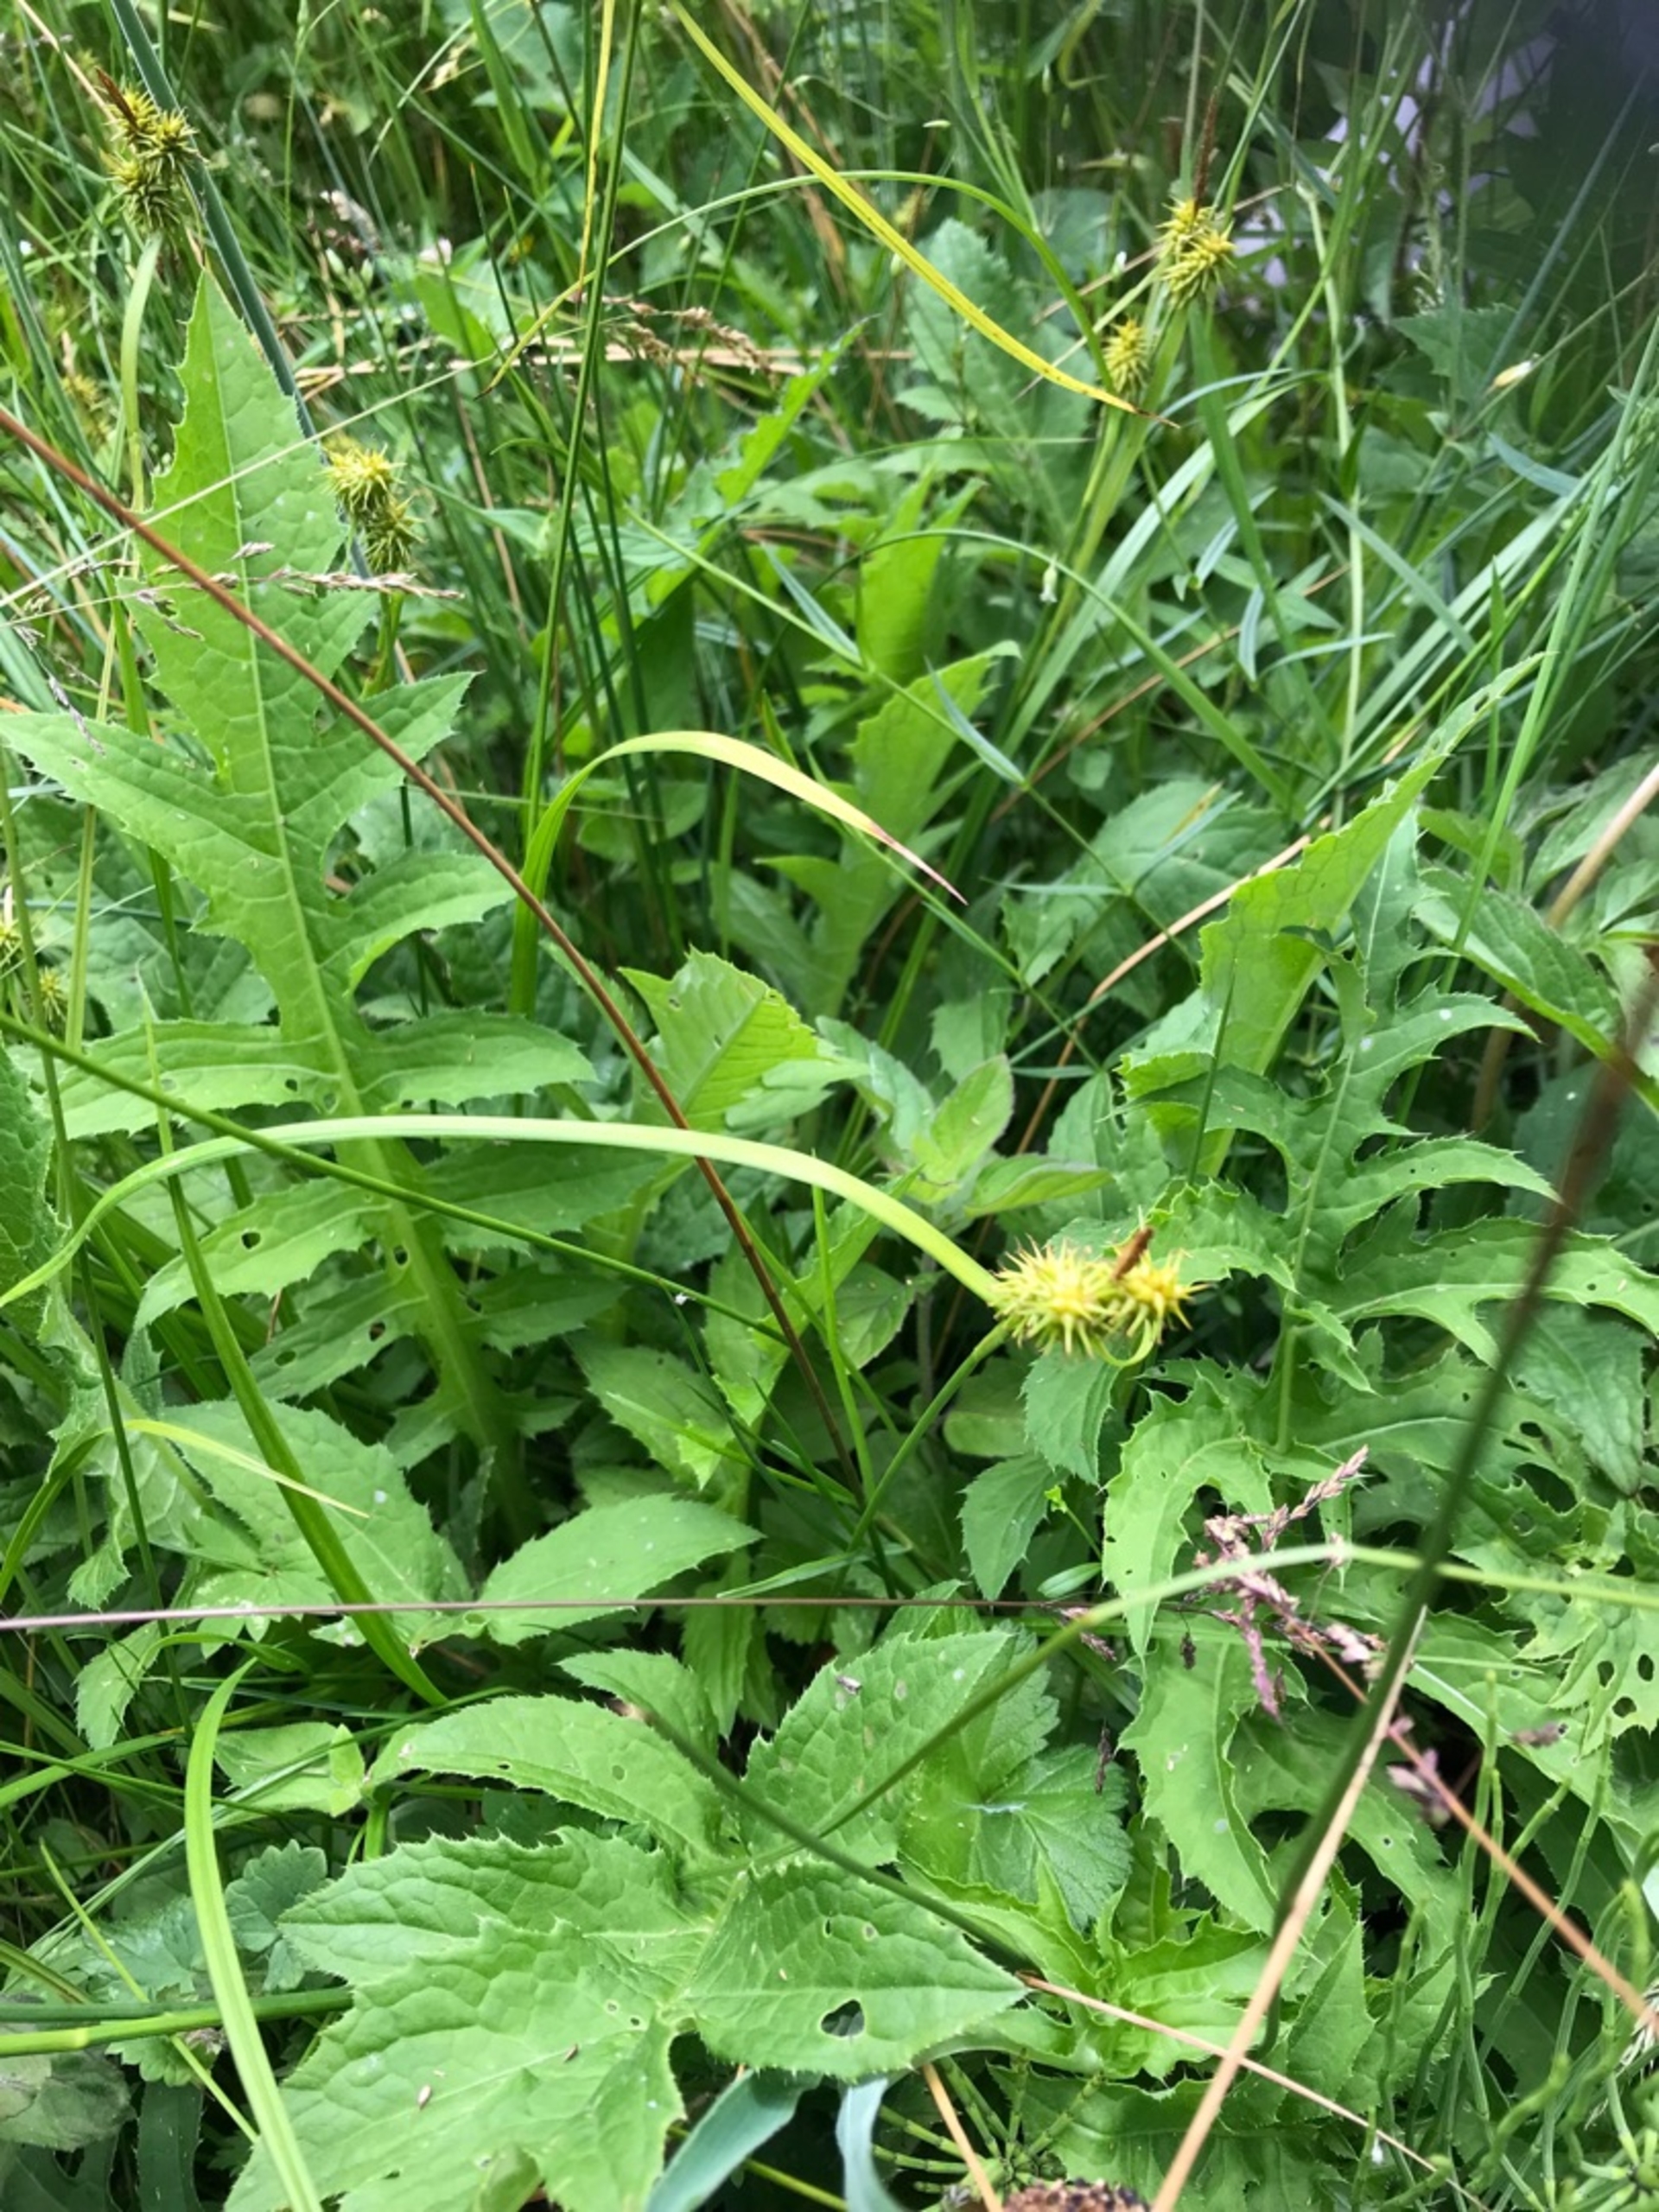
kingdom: Plantae
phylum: Tracheophyta
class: Liliopsida
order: Poales
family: Cyperaceae
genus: Carex
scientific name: Carex flava
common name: Gul star
